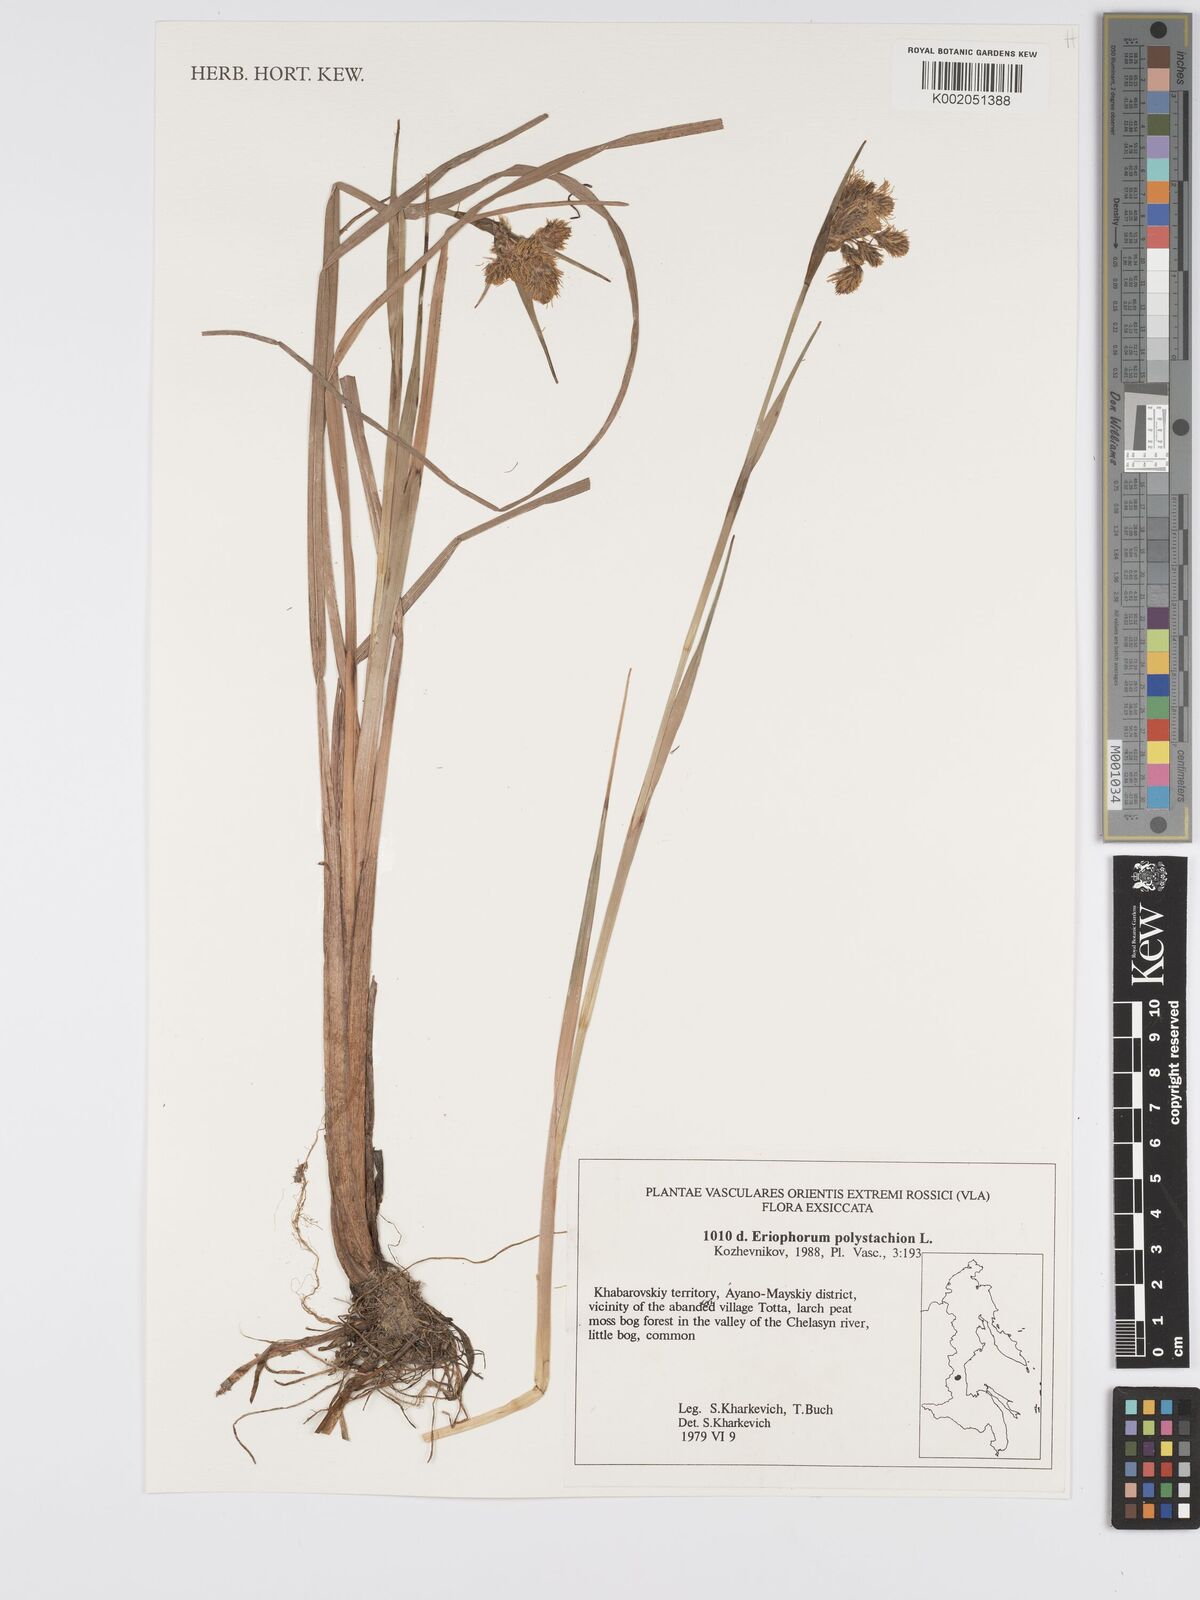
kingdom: Plantae
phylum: Tracheophyta
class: Liliopsida
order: Poales
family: Cyperaceae
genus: Eriophorum
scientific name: Eriophorum angustifolium
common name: Common cottongrass
